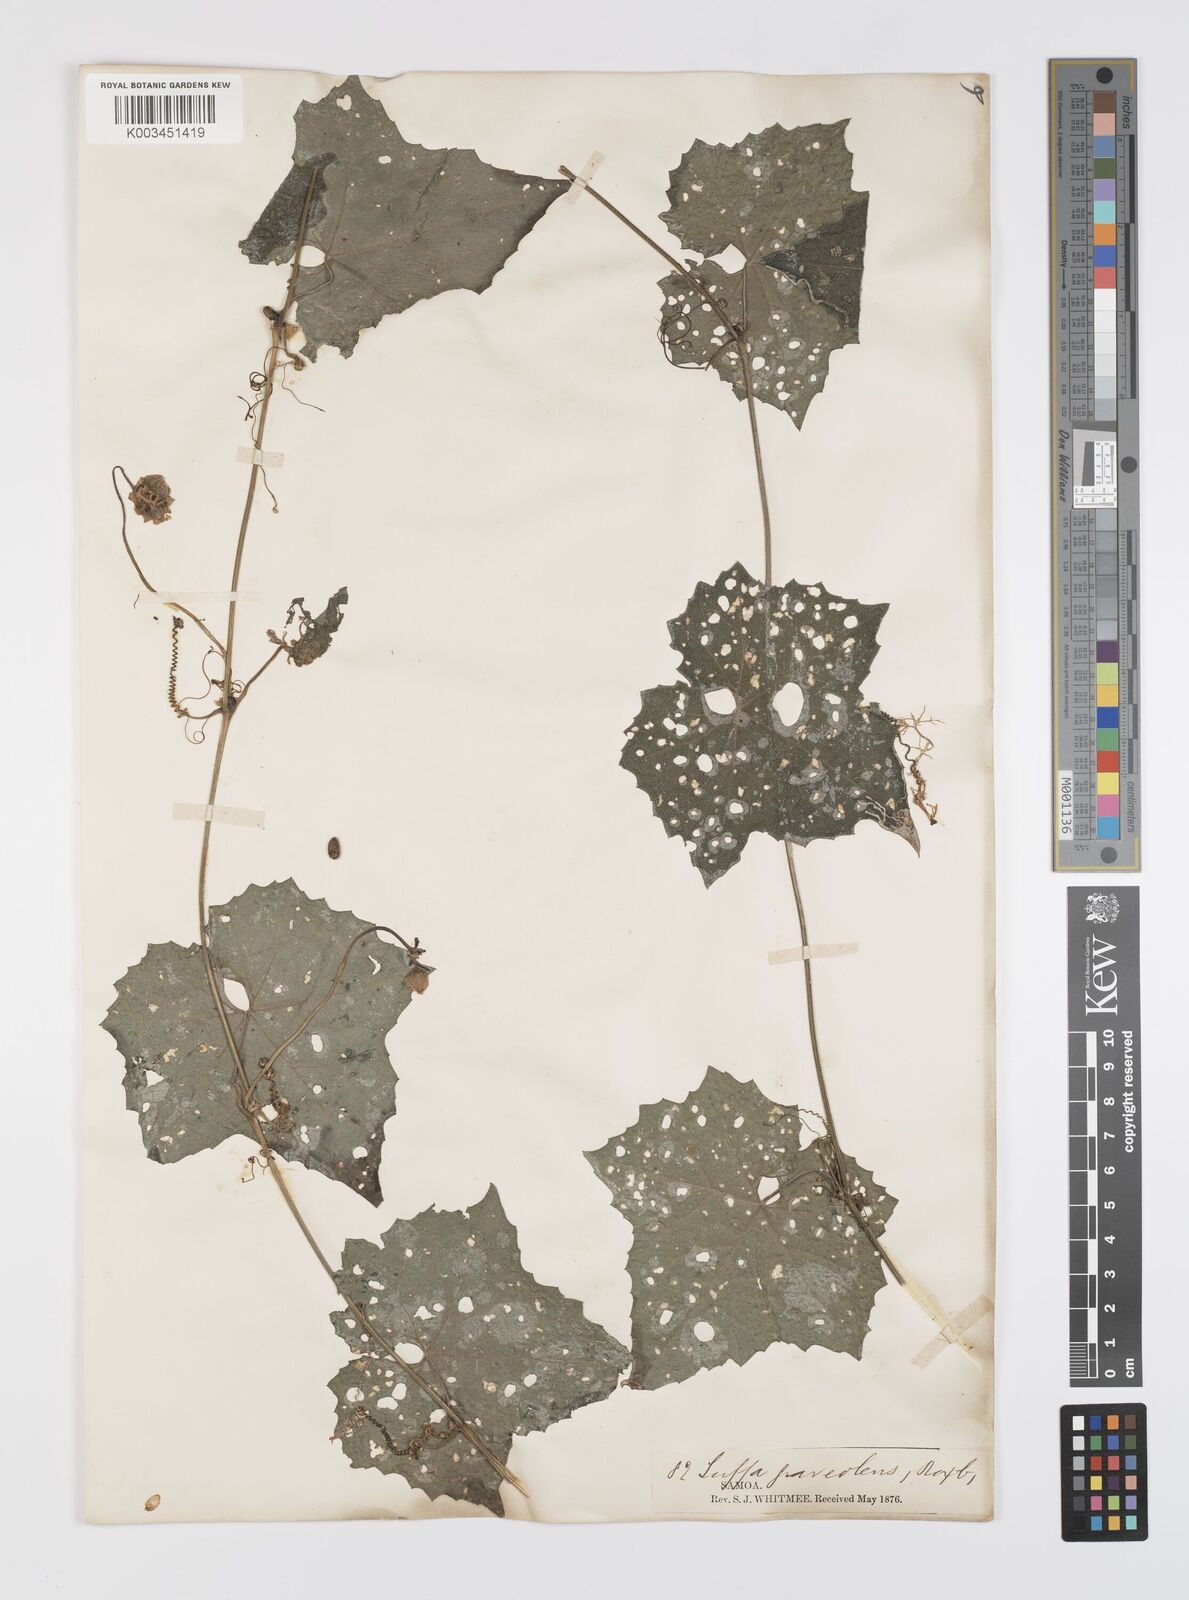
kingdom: Plantae
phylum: Tracheophyta
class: Magnoliopsida
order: Cucurbitales
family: Cucurbitaceae
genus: Luffa
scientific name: Luffa graveolens
